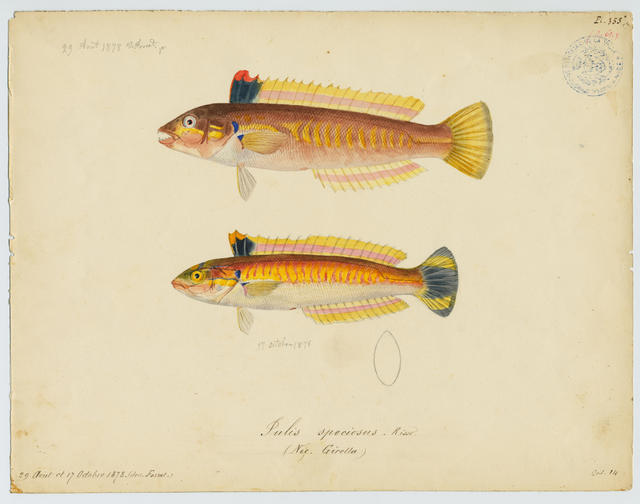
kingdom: Animalia
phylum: Chordata
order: Perciformes
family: Labridae
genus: Coris
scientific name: Coris julis
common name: Rainbow wrasse
